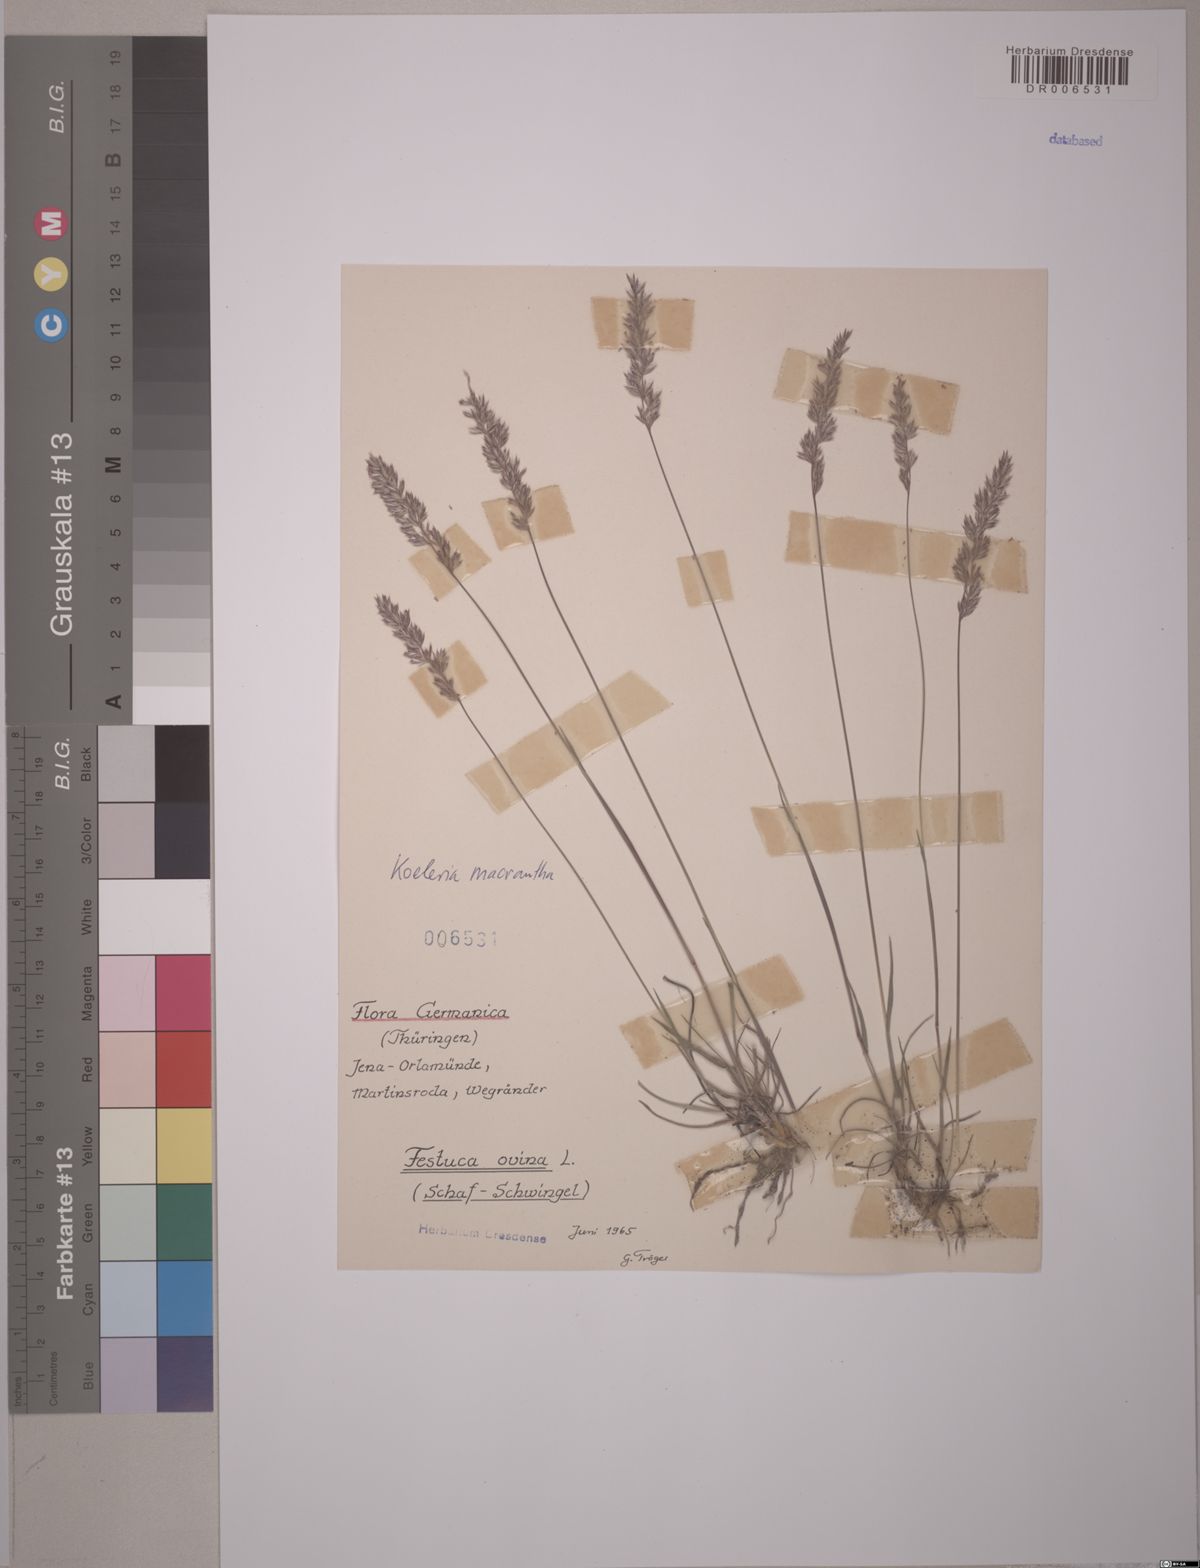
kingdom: Plantae
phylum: Tracheophyta
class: Liliopsida
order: Poales
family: Poaceae
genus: Festuca
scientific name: Festuca ovina
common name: Sheep fescue
